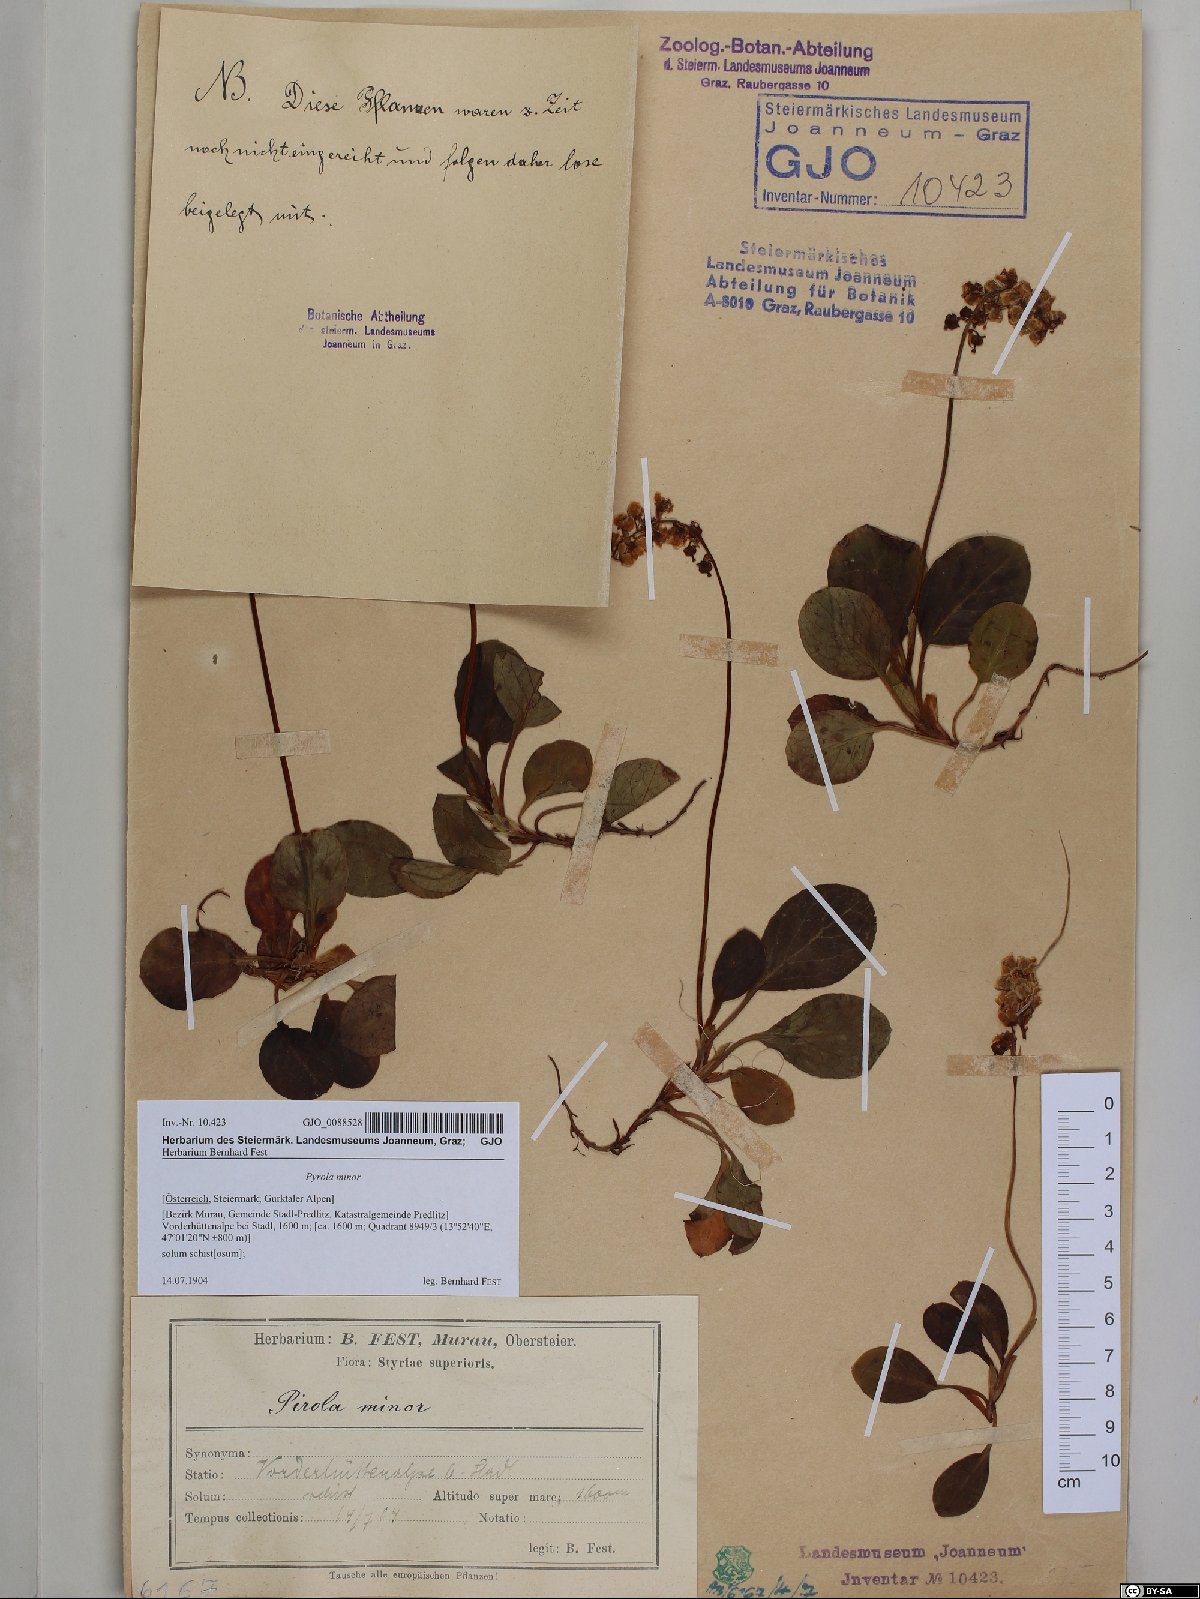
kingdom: Plantae
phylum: Tracheophyta
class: Magnoliopsida
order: Ericales
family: Ericaceae
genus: Pyrola
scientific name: Pyrola minor
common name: Common wintergreen
